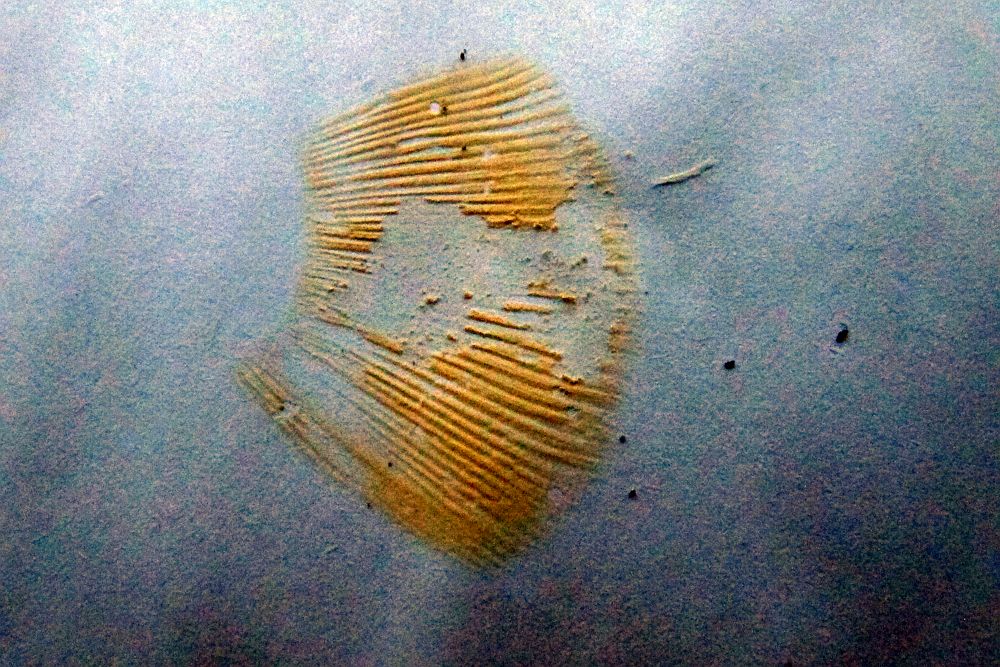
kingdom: Fungi
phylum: Basidiomycota
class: Agaricomycetes
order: Russulales
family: Russulaceae
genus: Russula
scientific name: Russula depallens
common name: falmende skørhat
